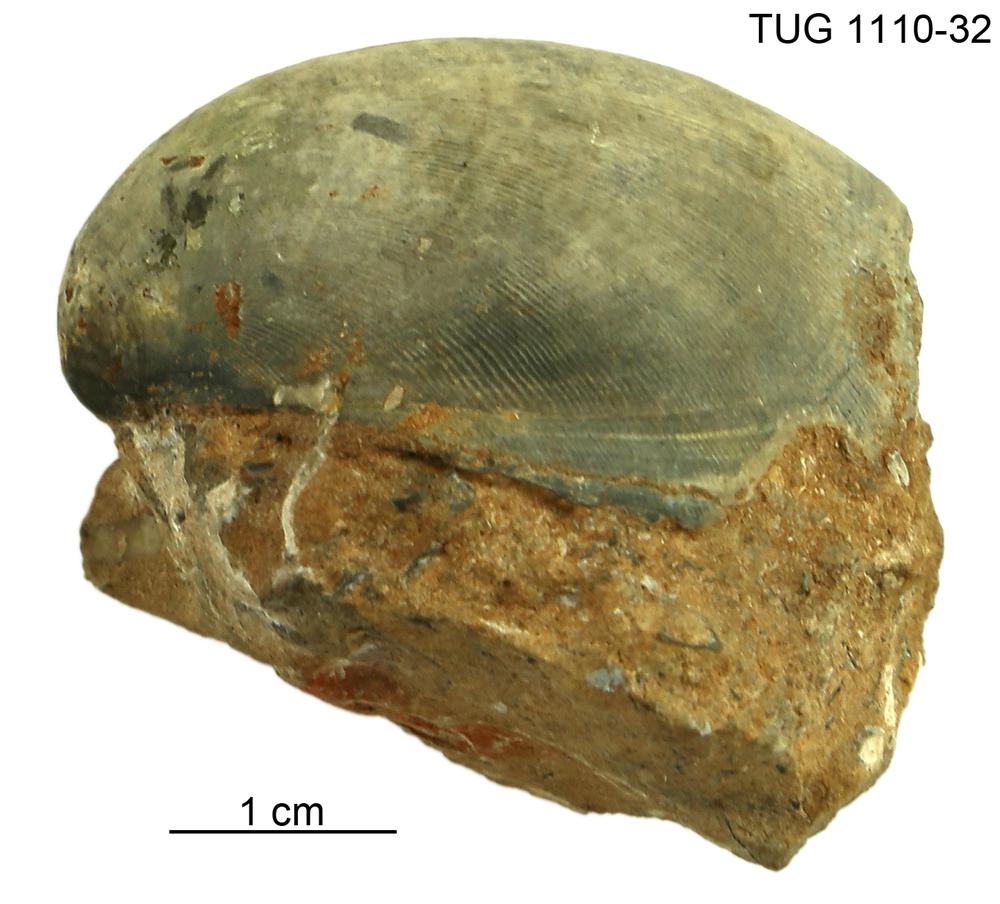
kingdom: Animalia
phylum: Brachiopoda
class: Rhynchonellata
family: Porambonitidae
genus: Porambonites
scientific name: Porambonites
